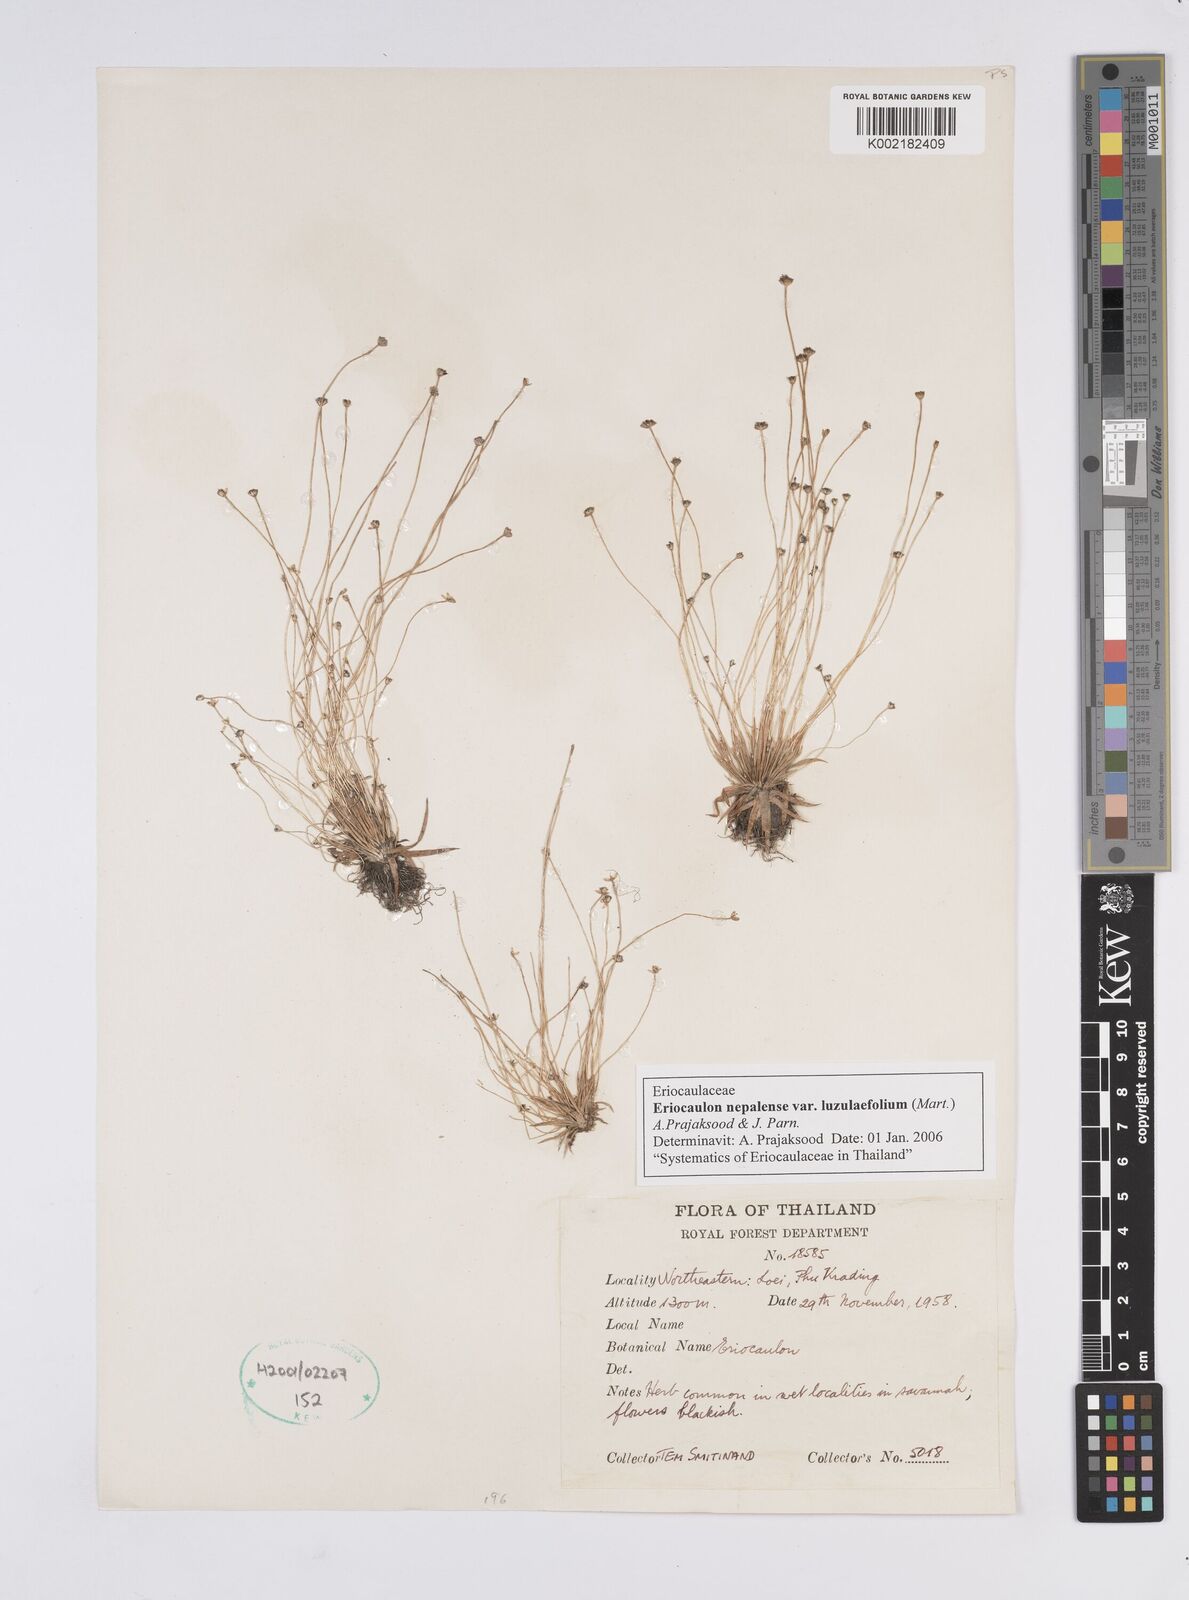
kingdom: Plantae
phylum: Tracheophyta
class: Liliopsida
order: Poales
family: Eriocaulaceae
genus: Eriocaulon
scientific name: Eriocaulon nepalense
